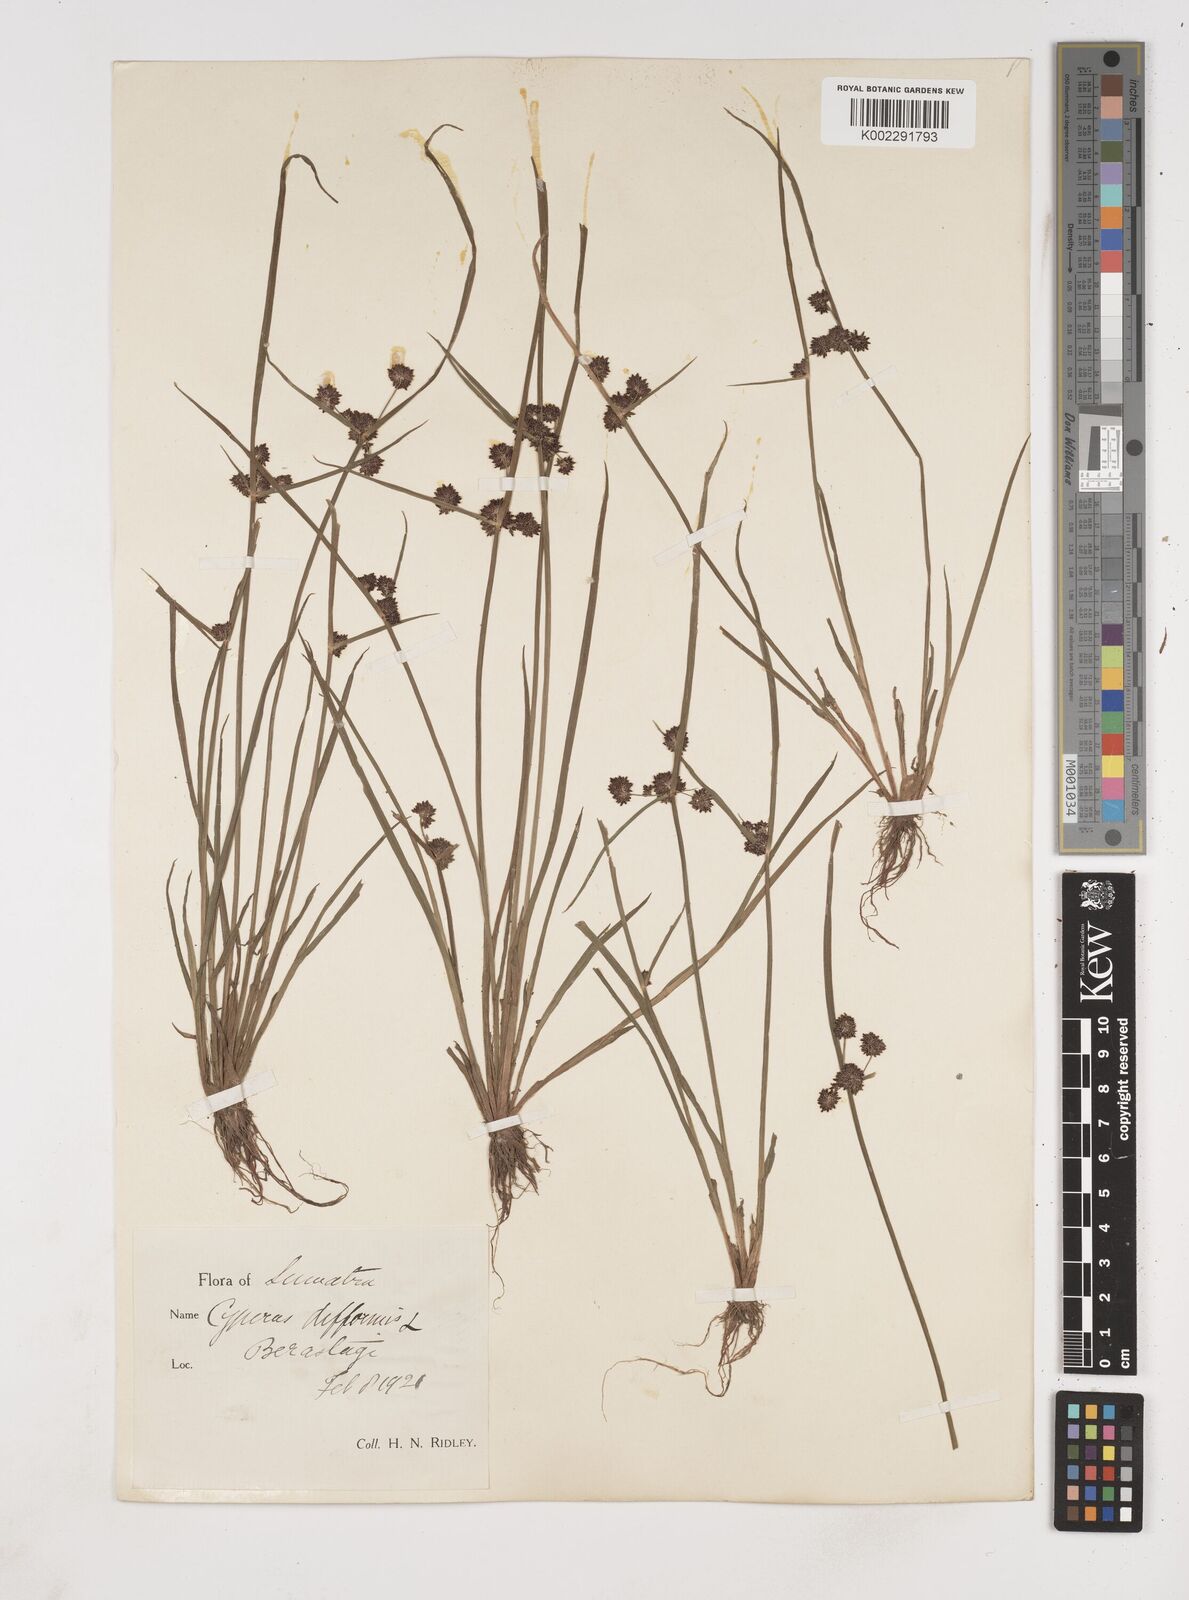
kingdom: Plantae
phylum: Tracheophyta
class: Liliopsida
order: Poales
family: Cyperaceae
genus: Cyperus
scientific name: Cyperus difformis
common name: Variable flatsedge
